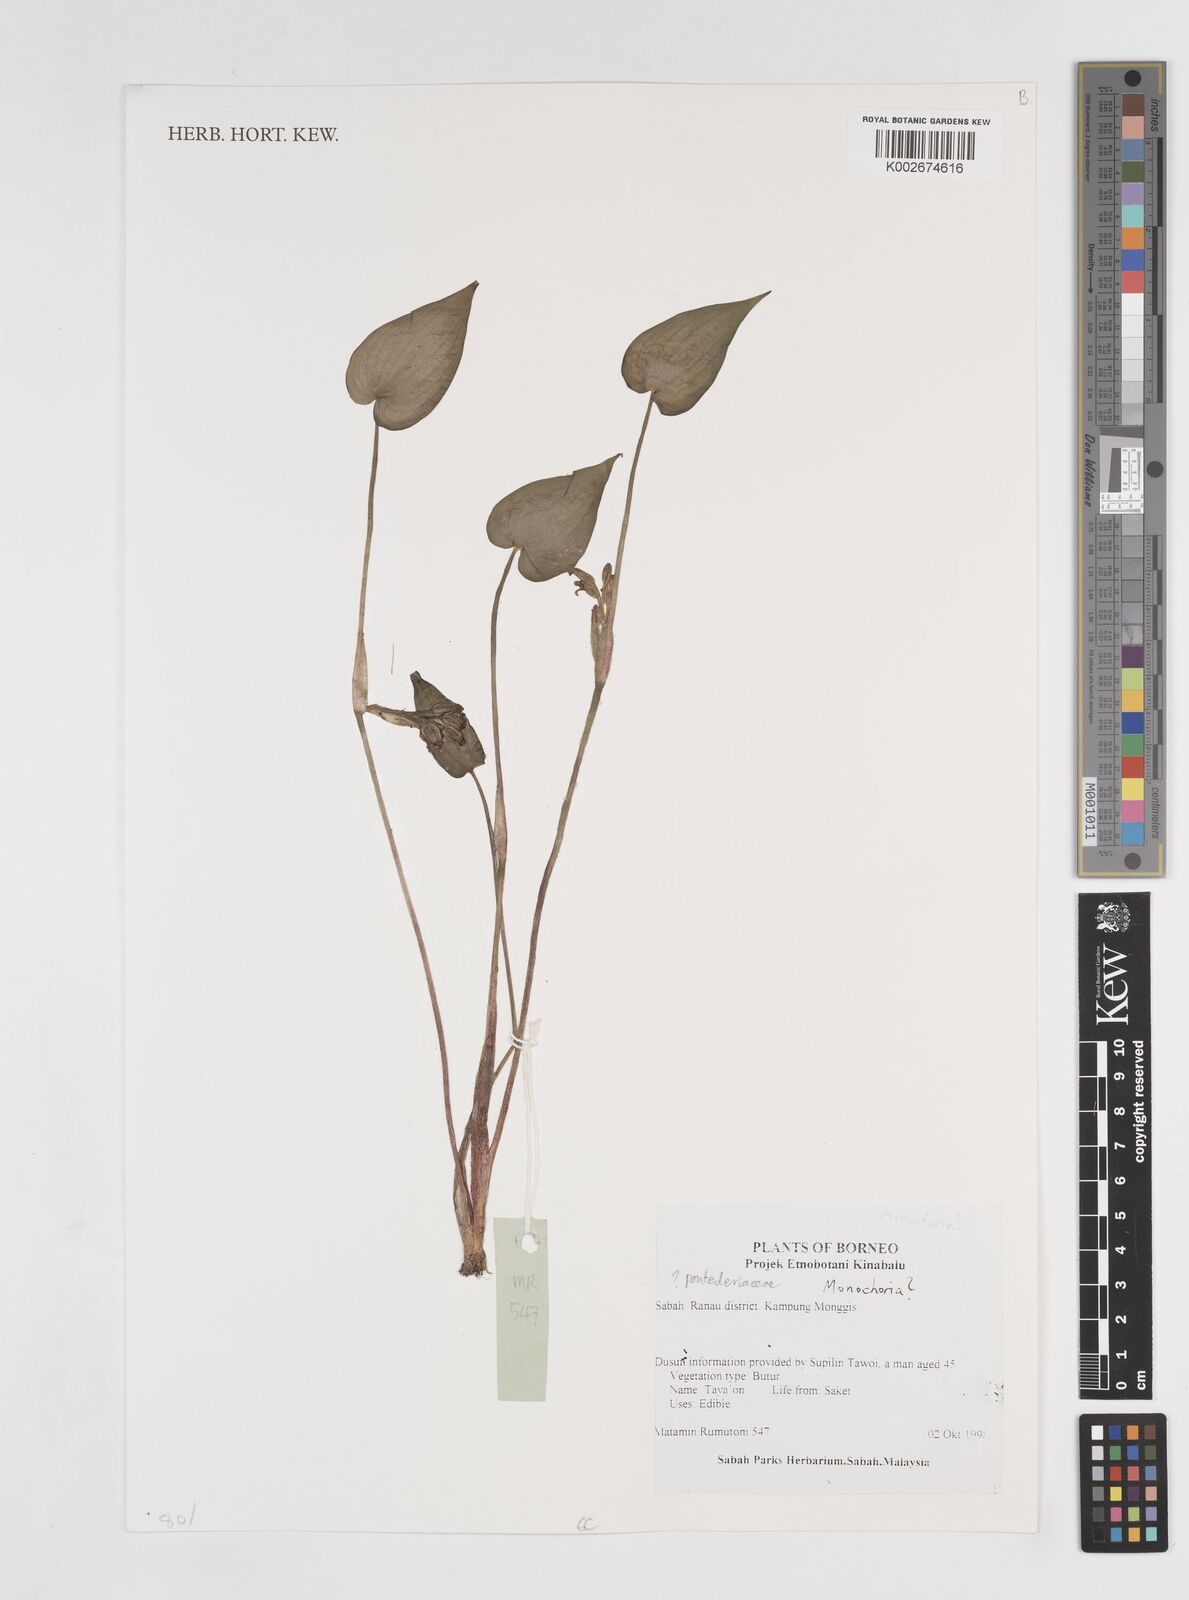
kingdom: Plantae
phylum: Tracheophyta
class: Liliopsida
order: Commelinales
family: Pontederiaceae
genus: Monochoria
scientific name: Monochoria
